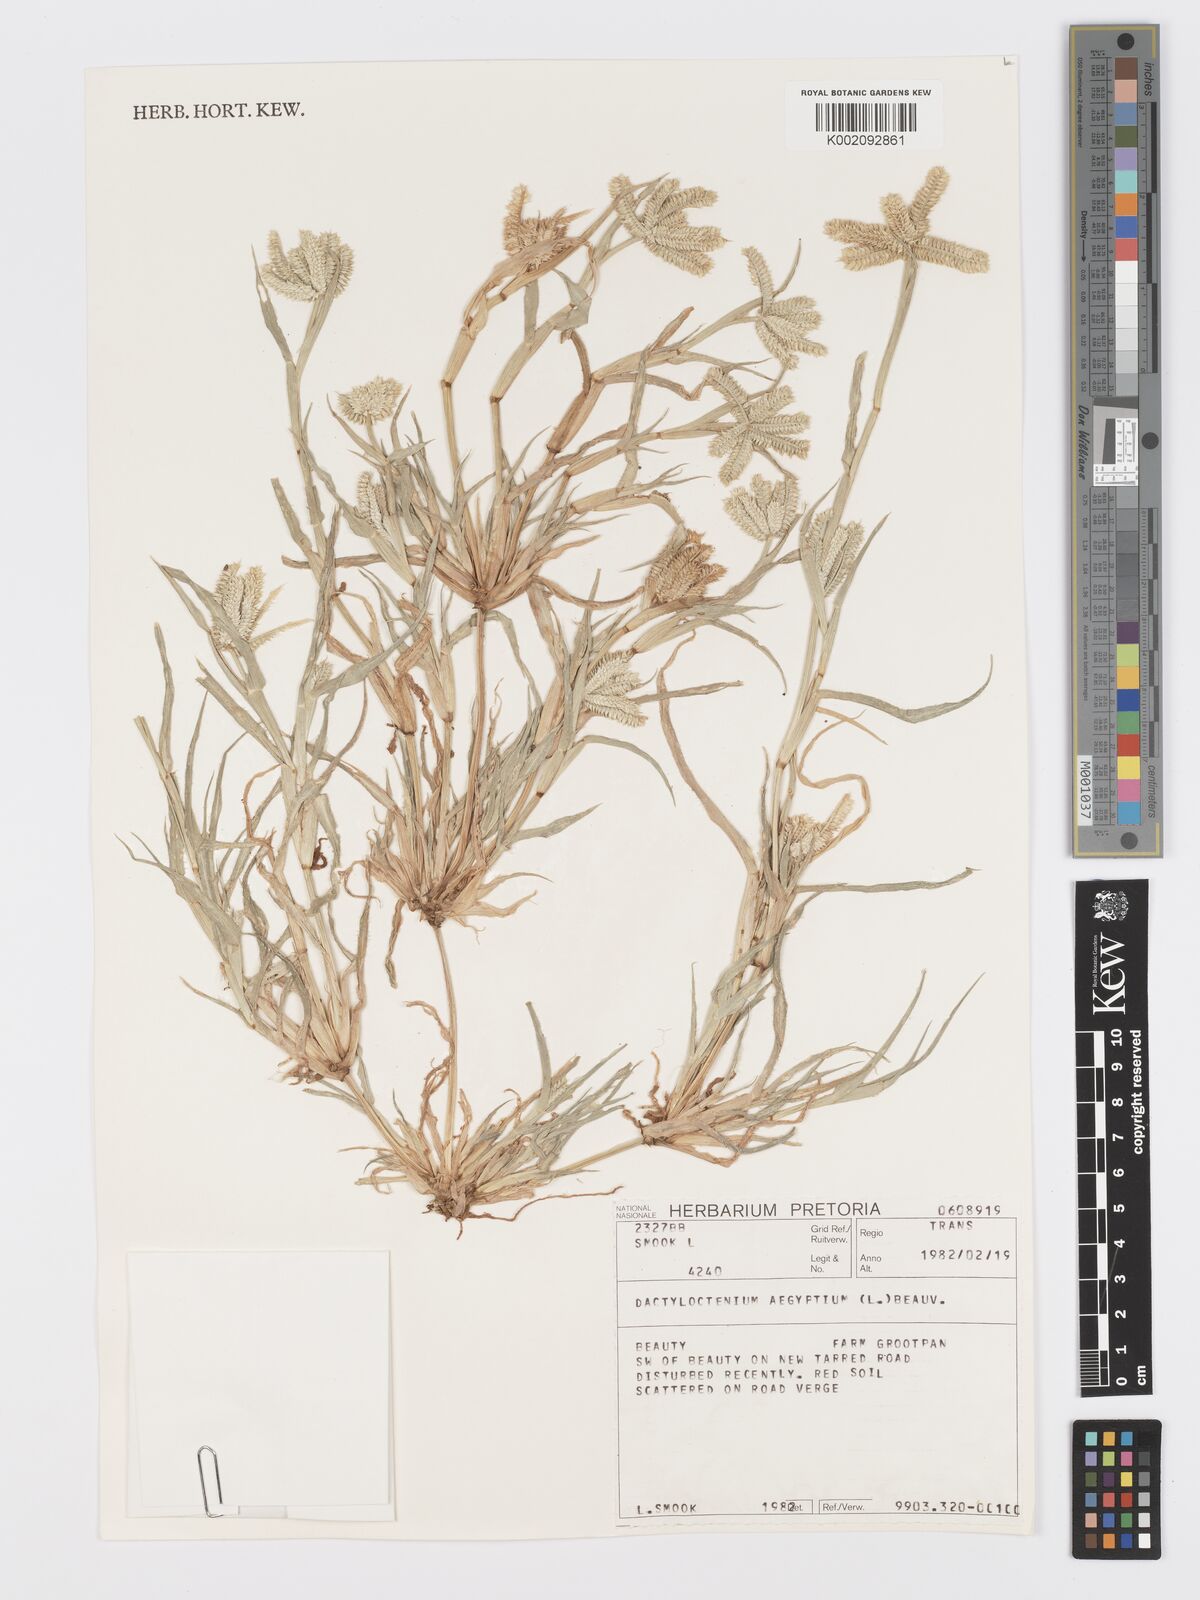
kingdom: Plantae
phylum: Tracheophyta
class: Liliopsida
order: Poales
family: Poaceae
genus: Dactyloctenium
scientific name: Dactyloctenium aegyptium
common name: Egyptian grass
